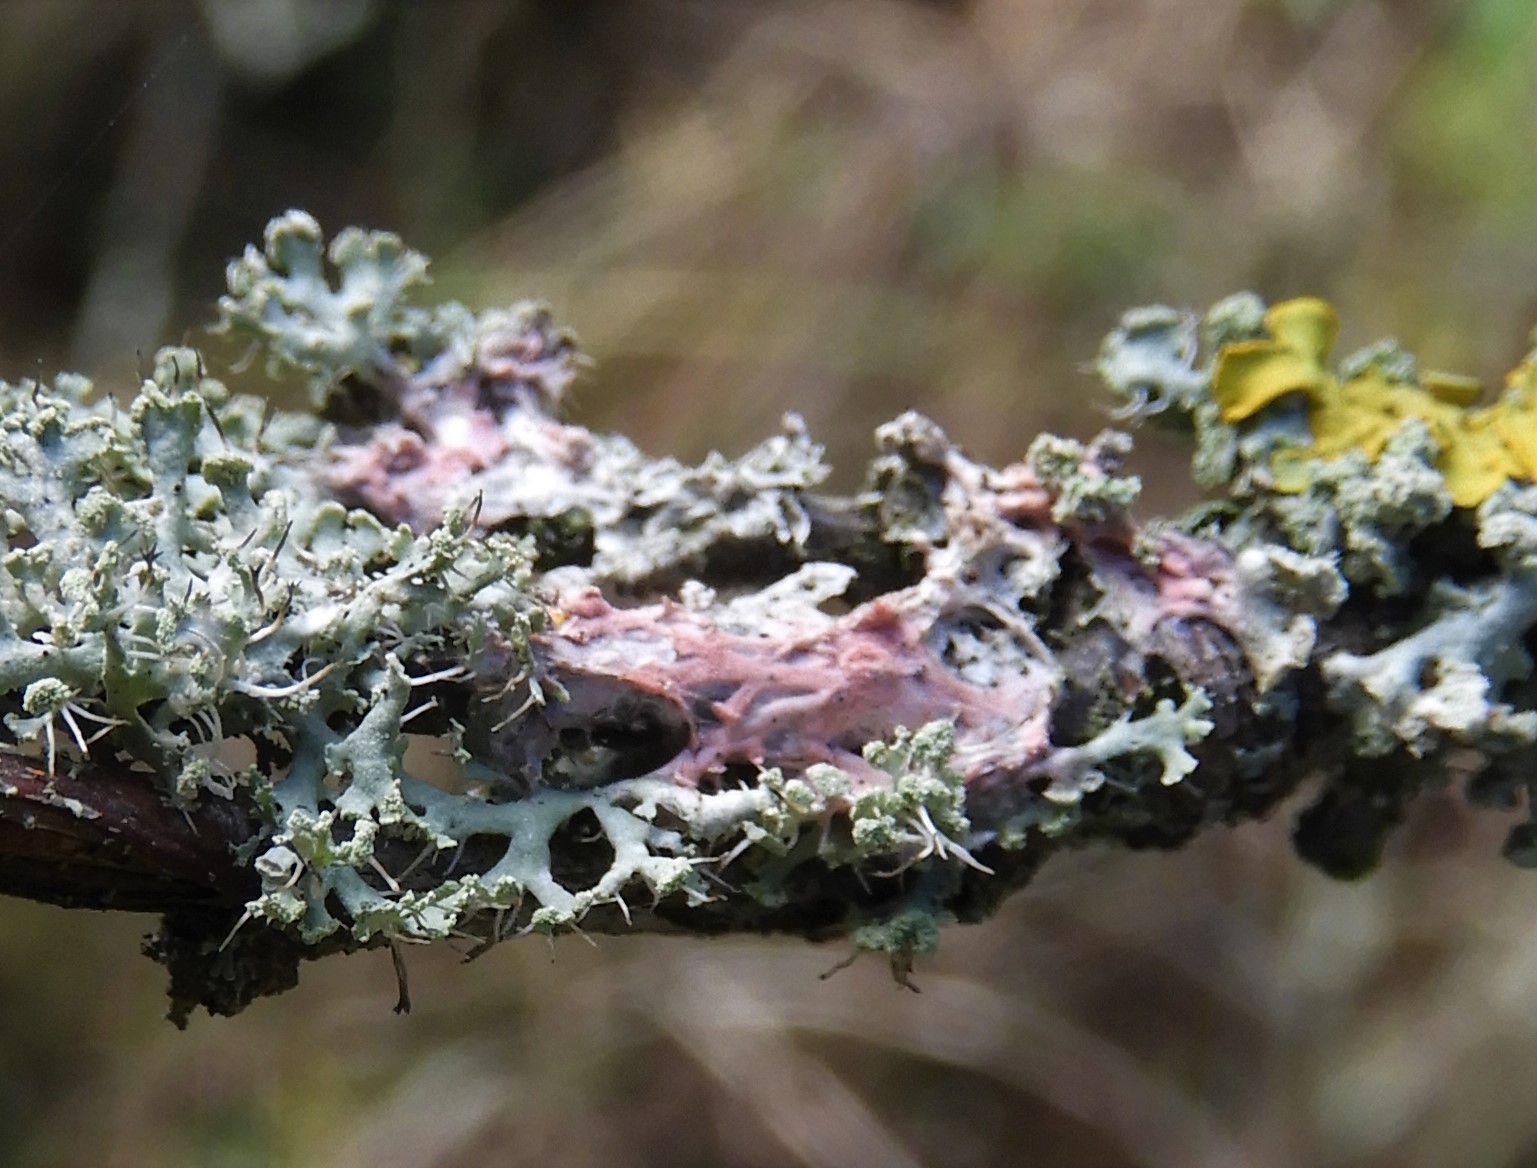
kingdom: Fungi
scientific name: Fungi
